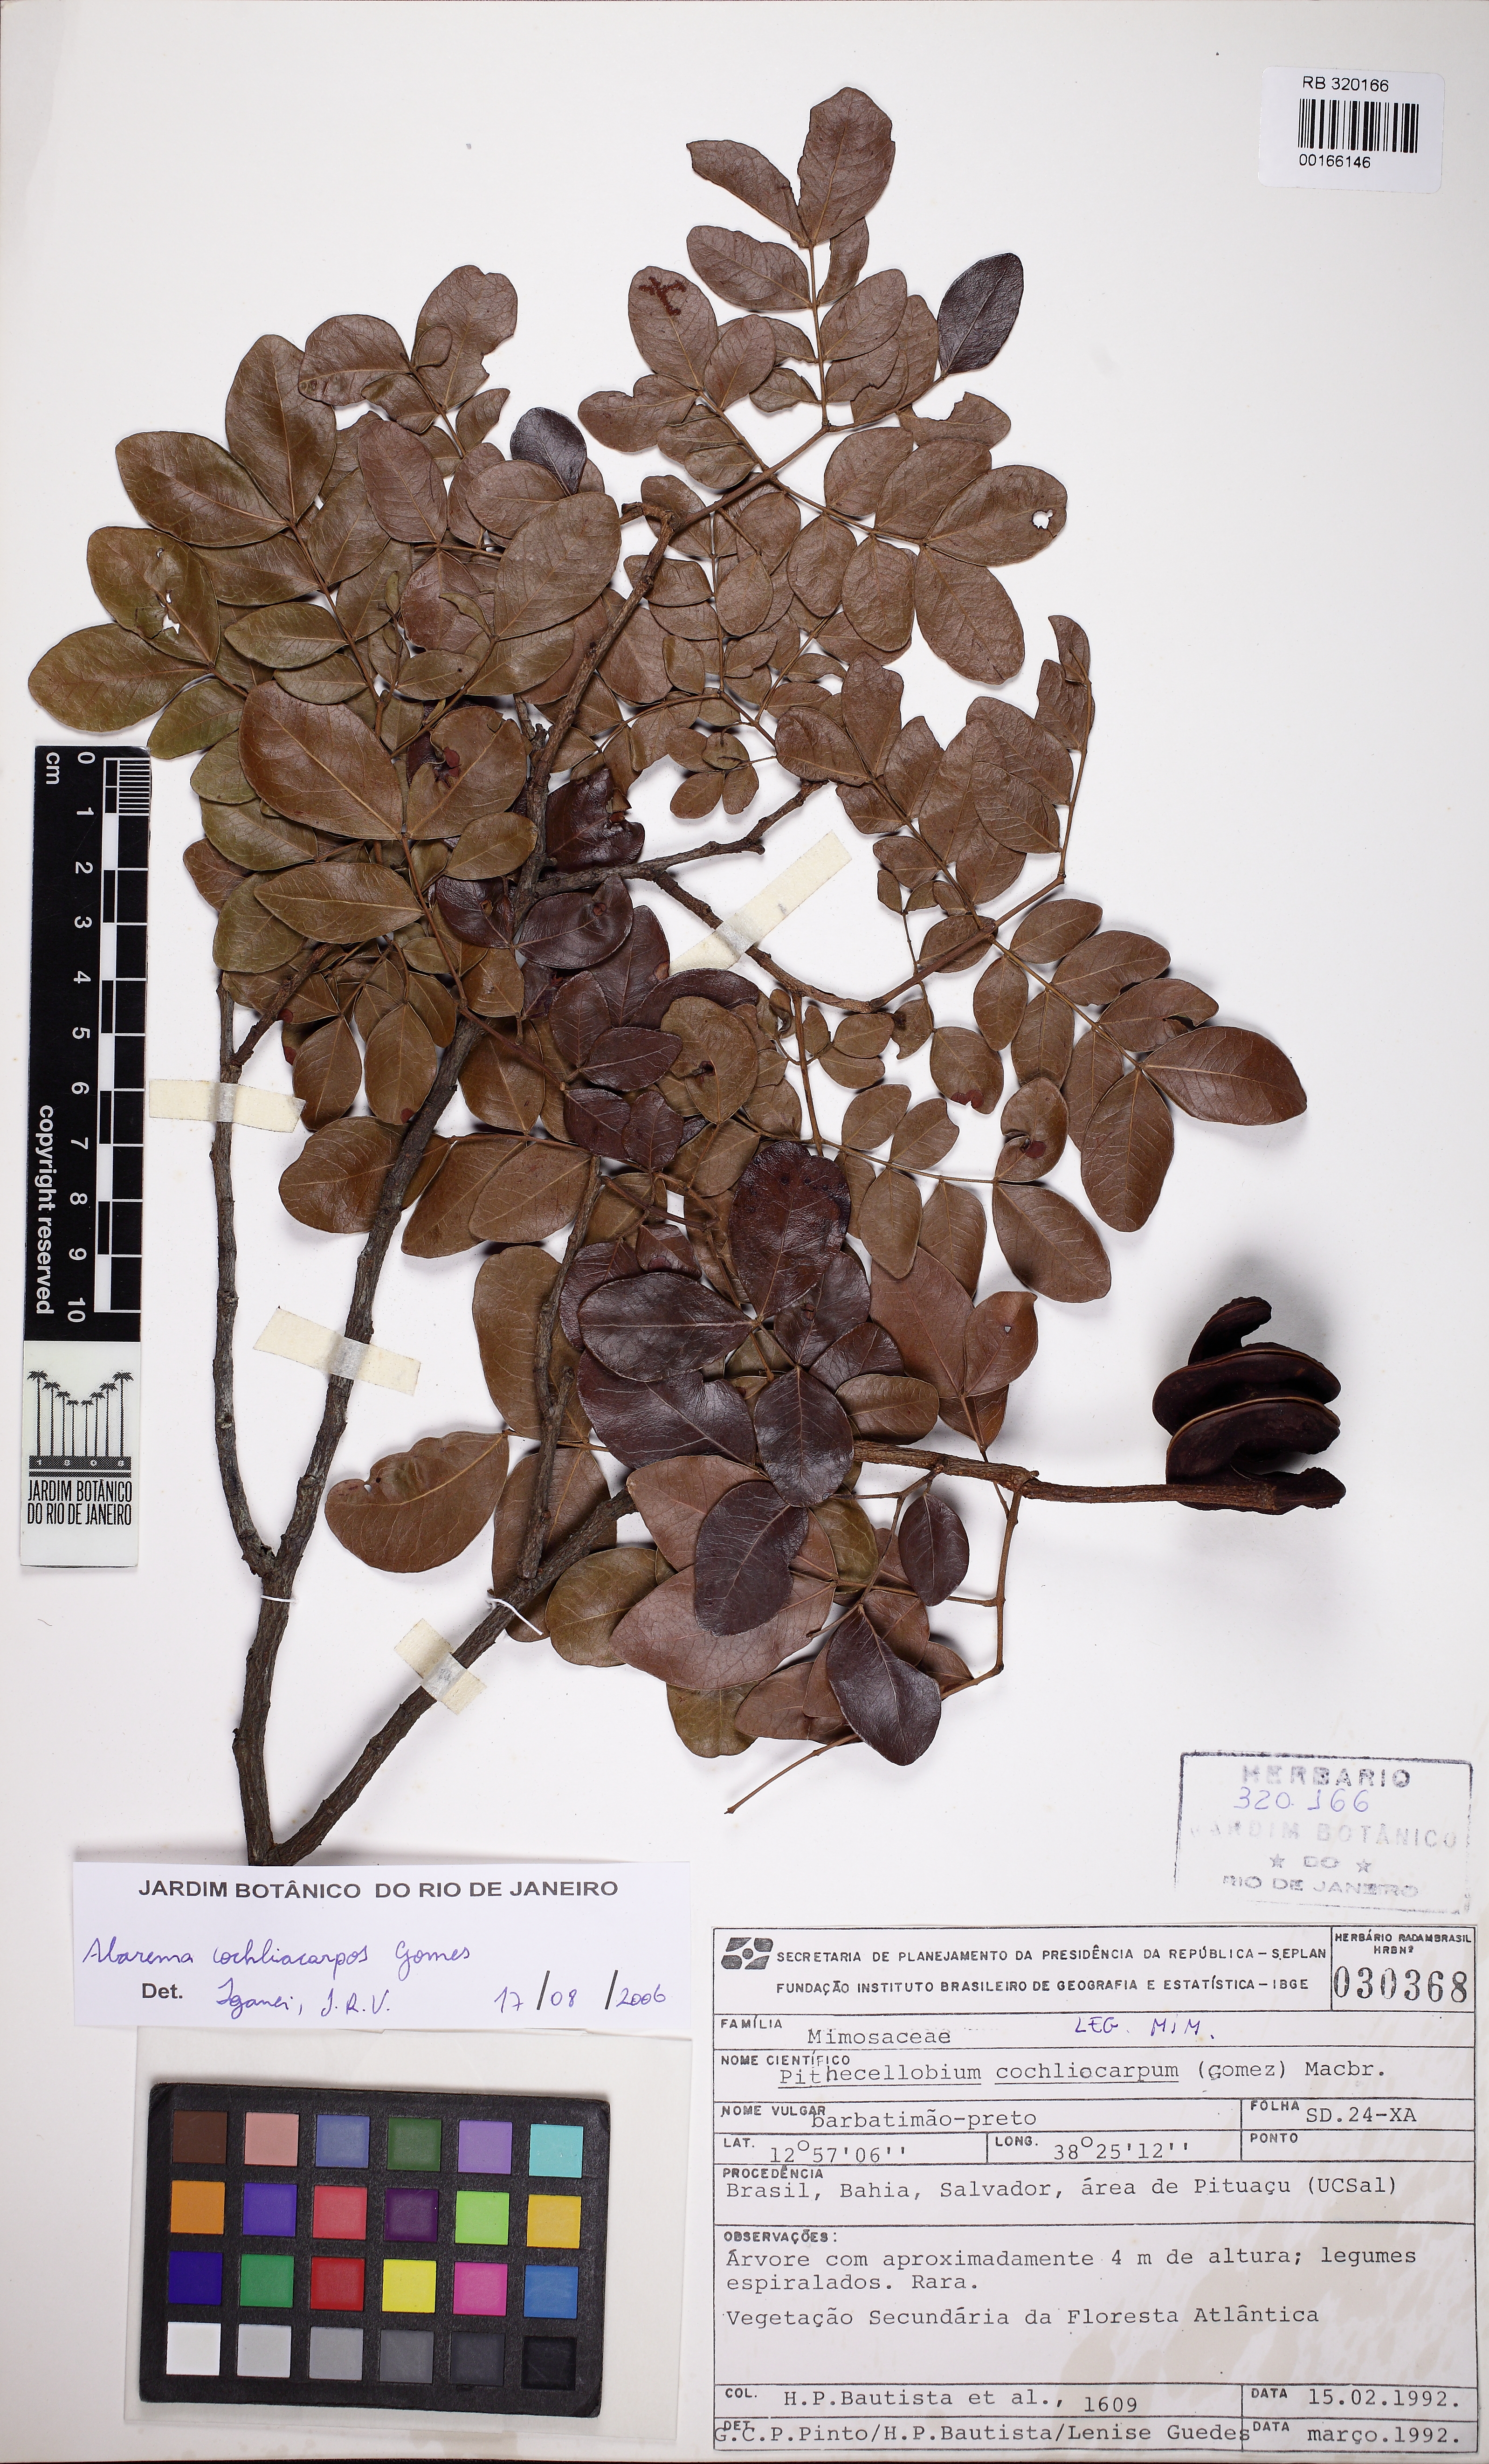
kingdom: Plantae
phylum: Tracheophyta
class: Magnoliopsida
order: Fabales
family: Fabaceae
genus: Abarema
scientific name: Abarema cochliacarpos
